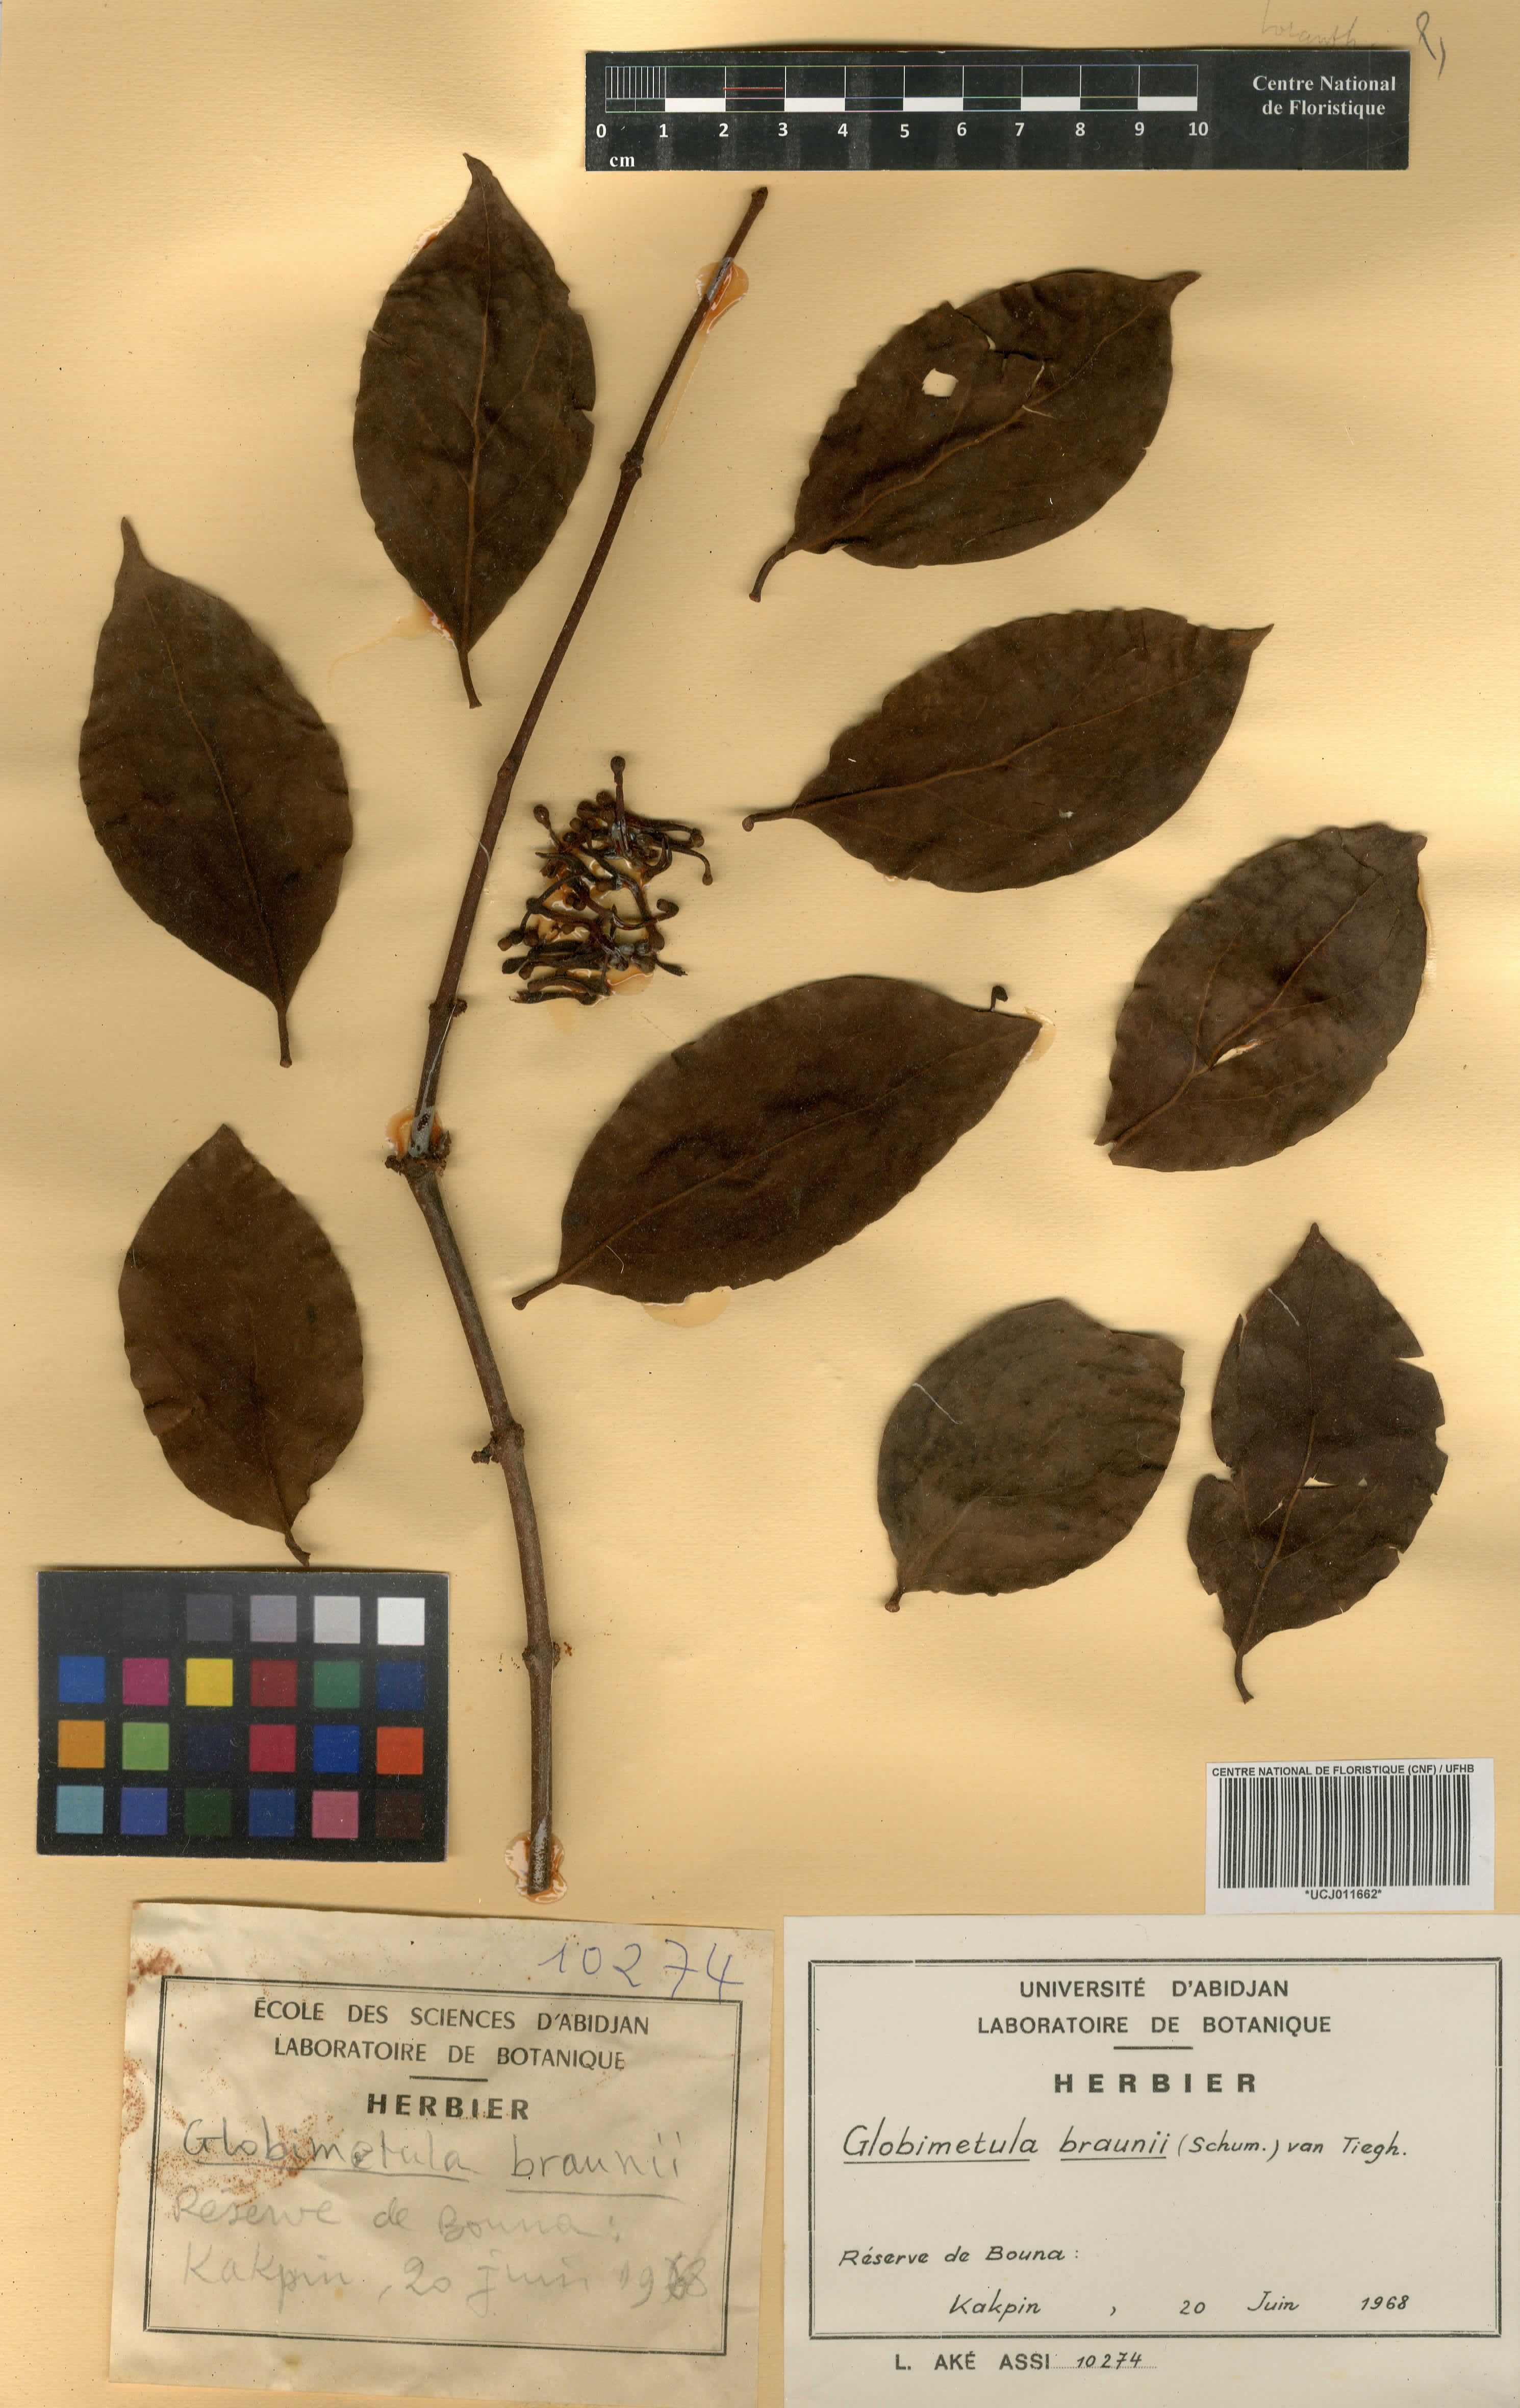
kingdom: Plantae
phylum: Tracheophyta
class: Magnoliopsida
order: Santalales
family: Loranthaceae
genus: Globimetula
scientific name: Globimetula braunii
